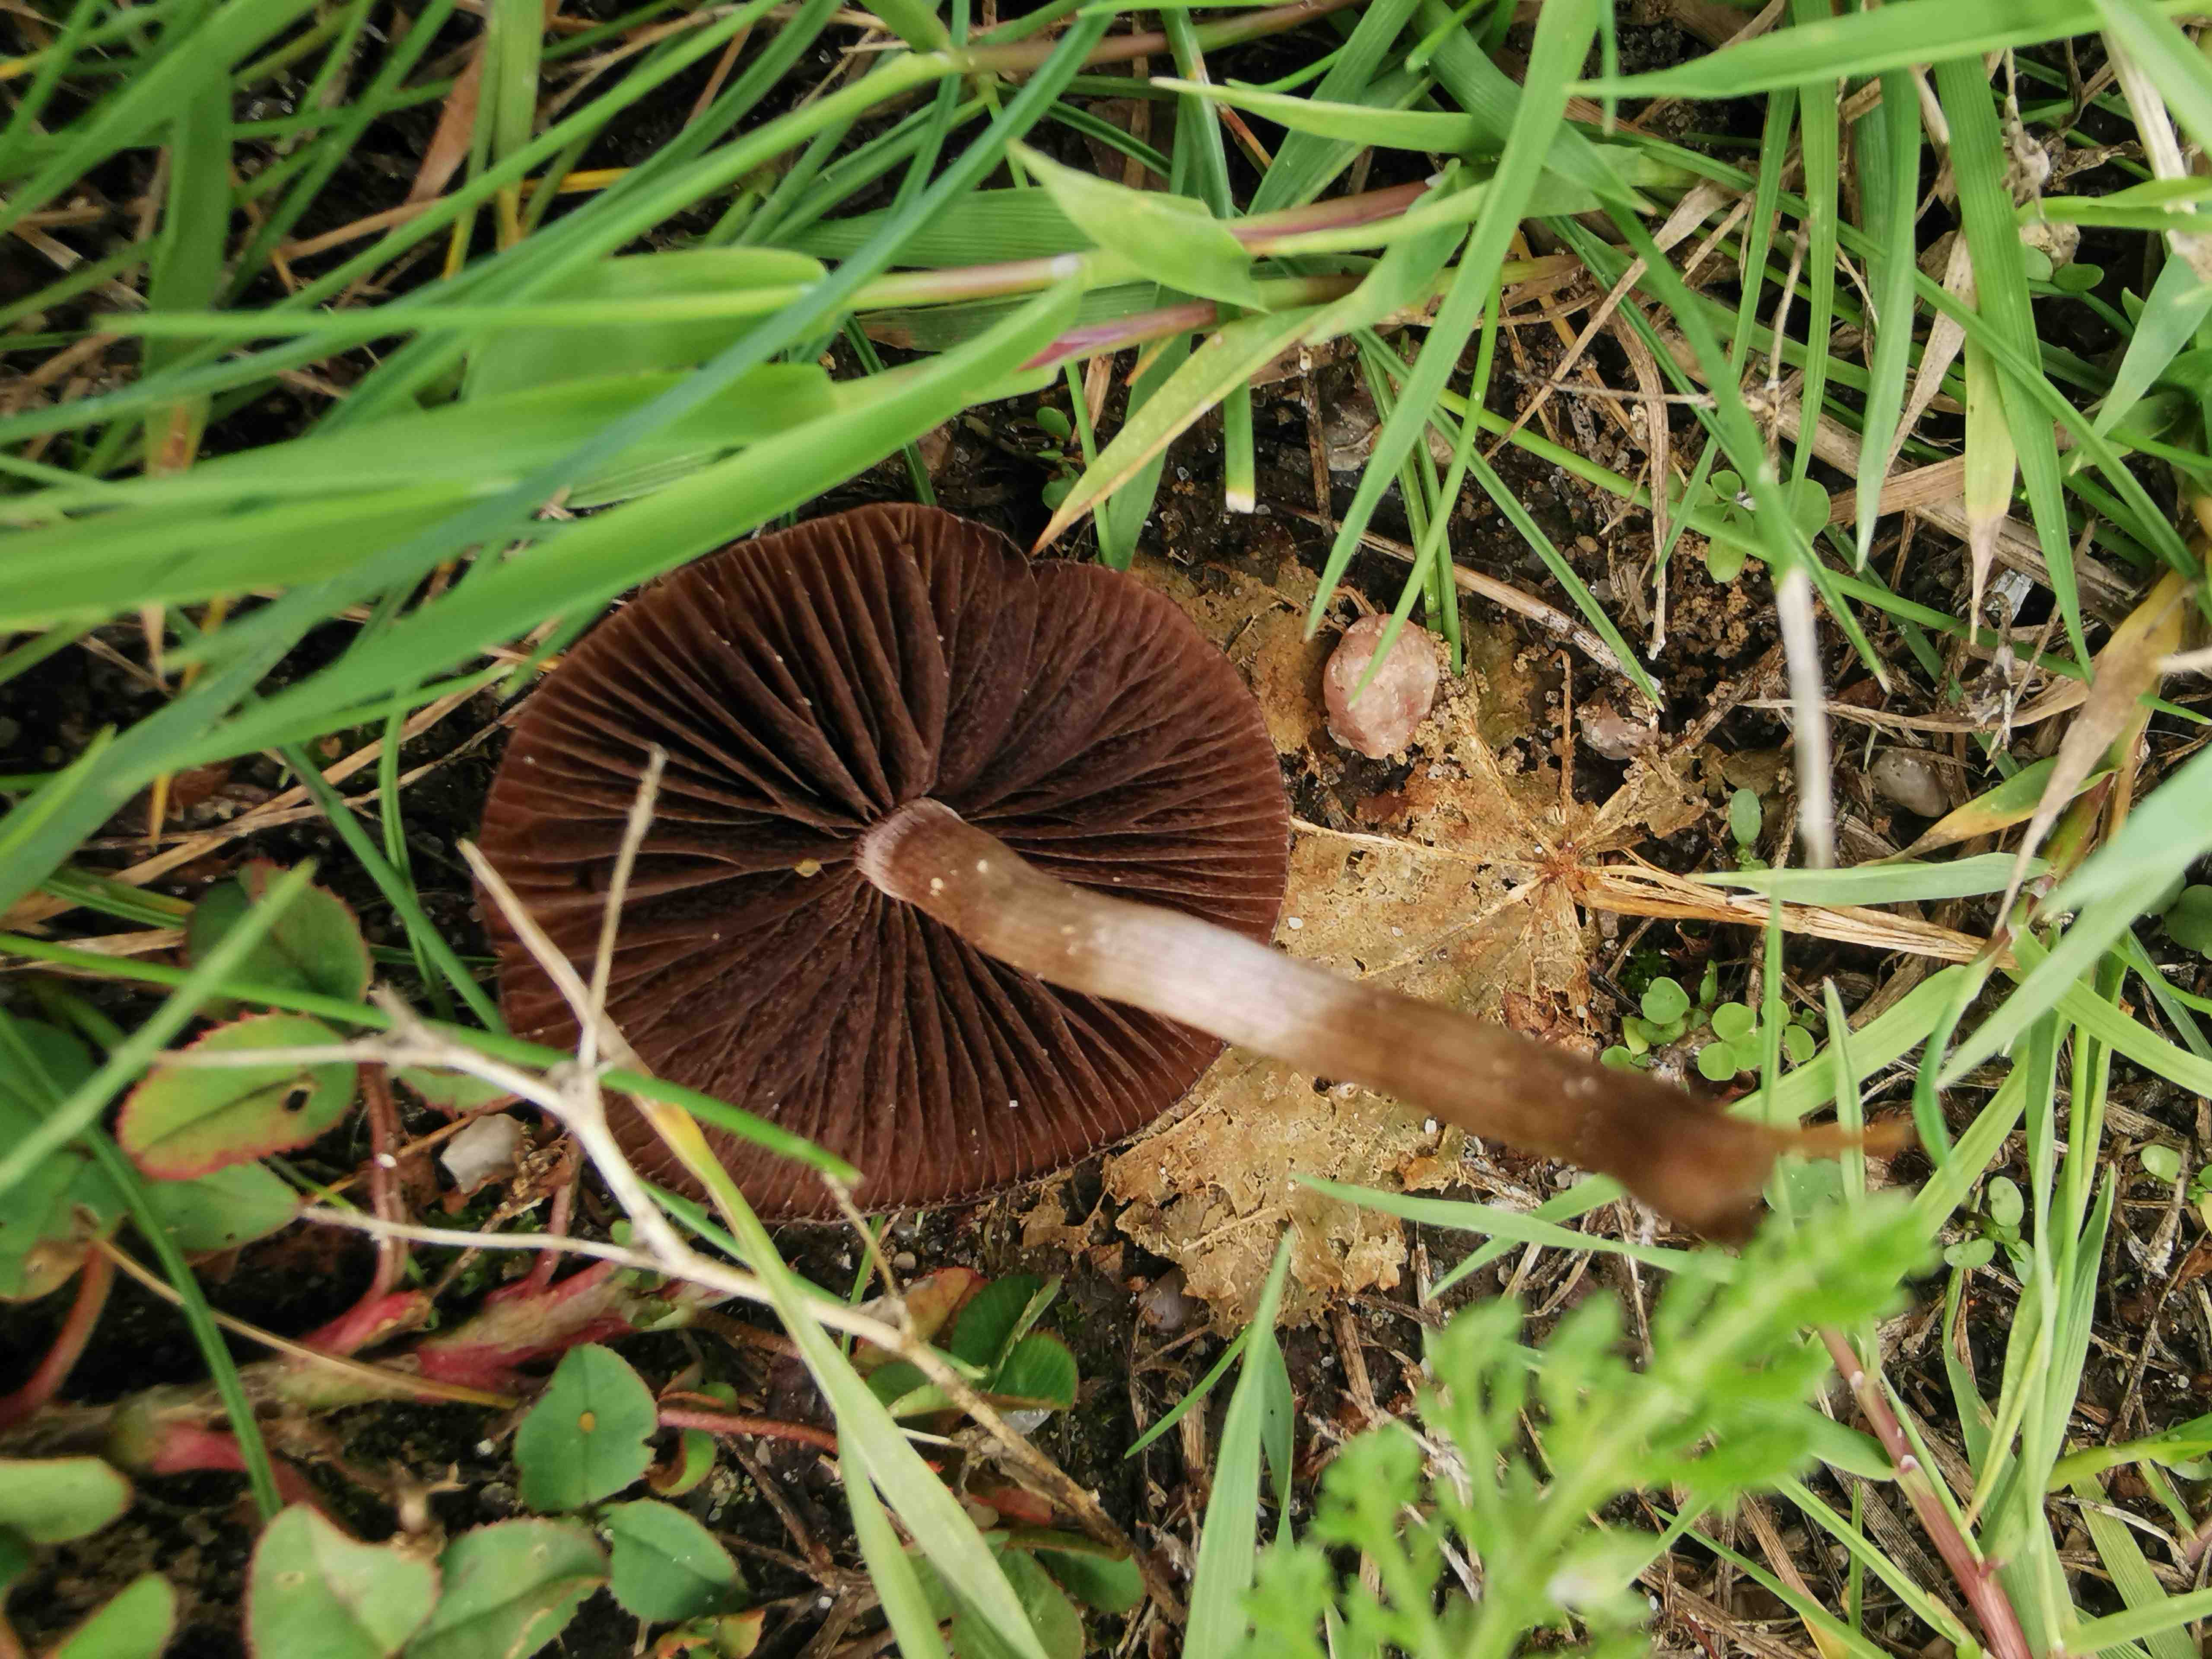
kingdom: Fungi
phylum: Basidiomycota
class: Agaricomycetes
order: Agaricales
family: Bolbitiaceae
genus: Panaeolina
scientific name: Panaeolina foenisecii
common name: høslætsvamp
